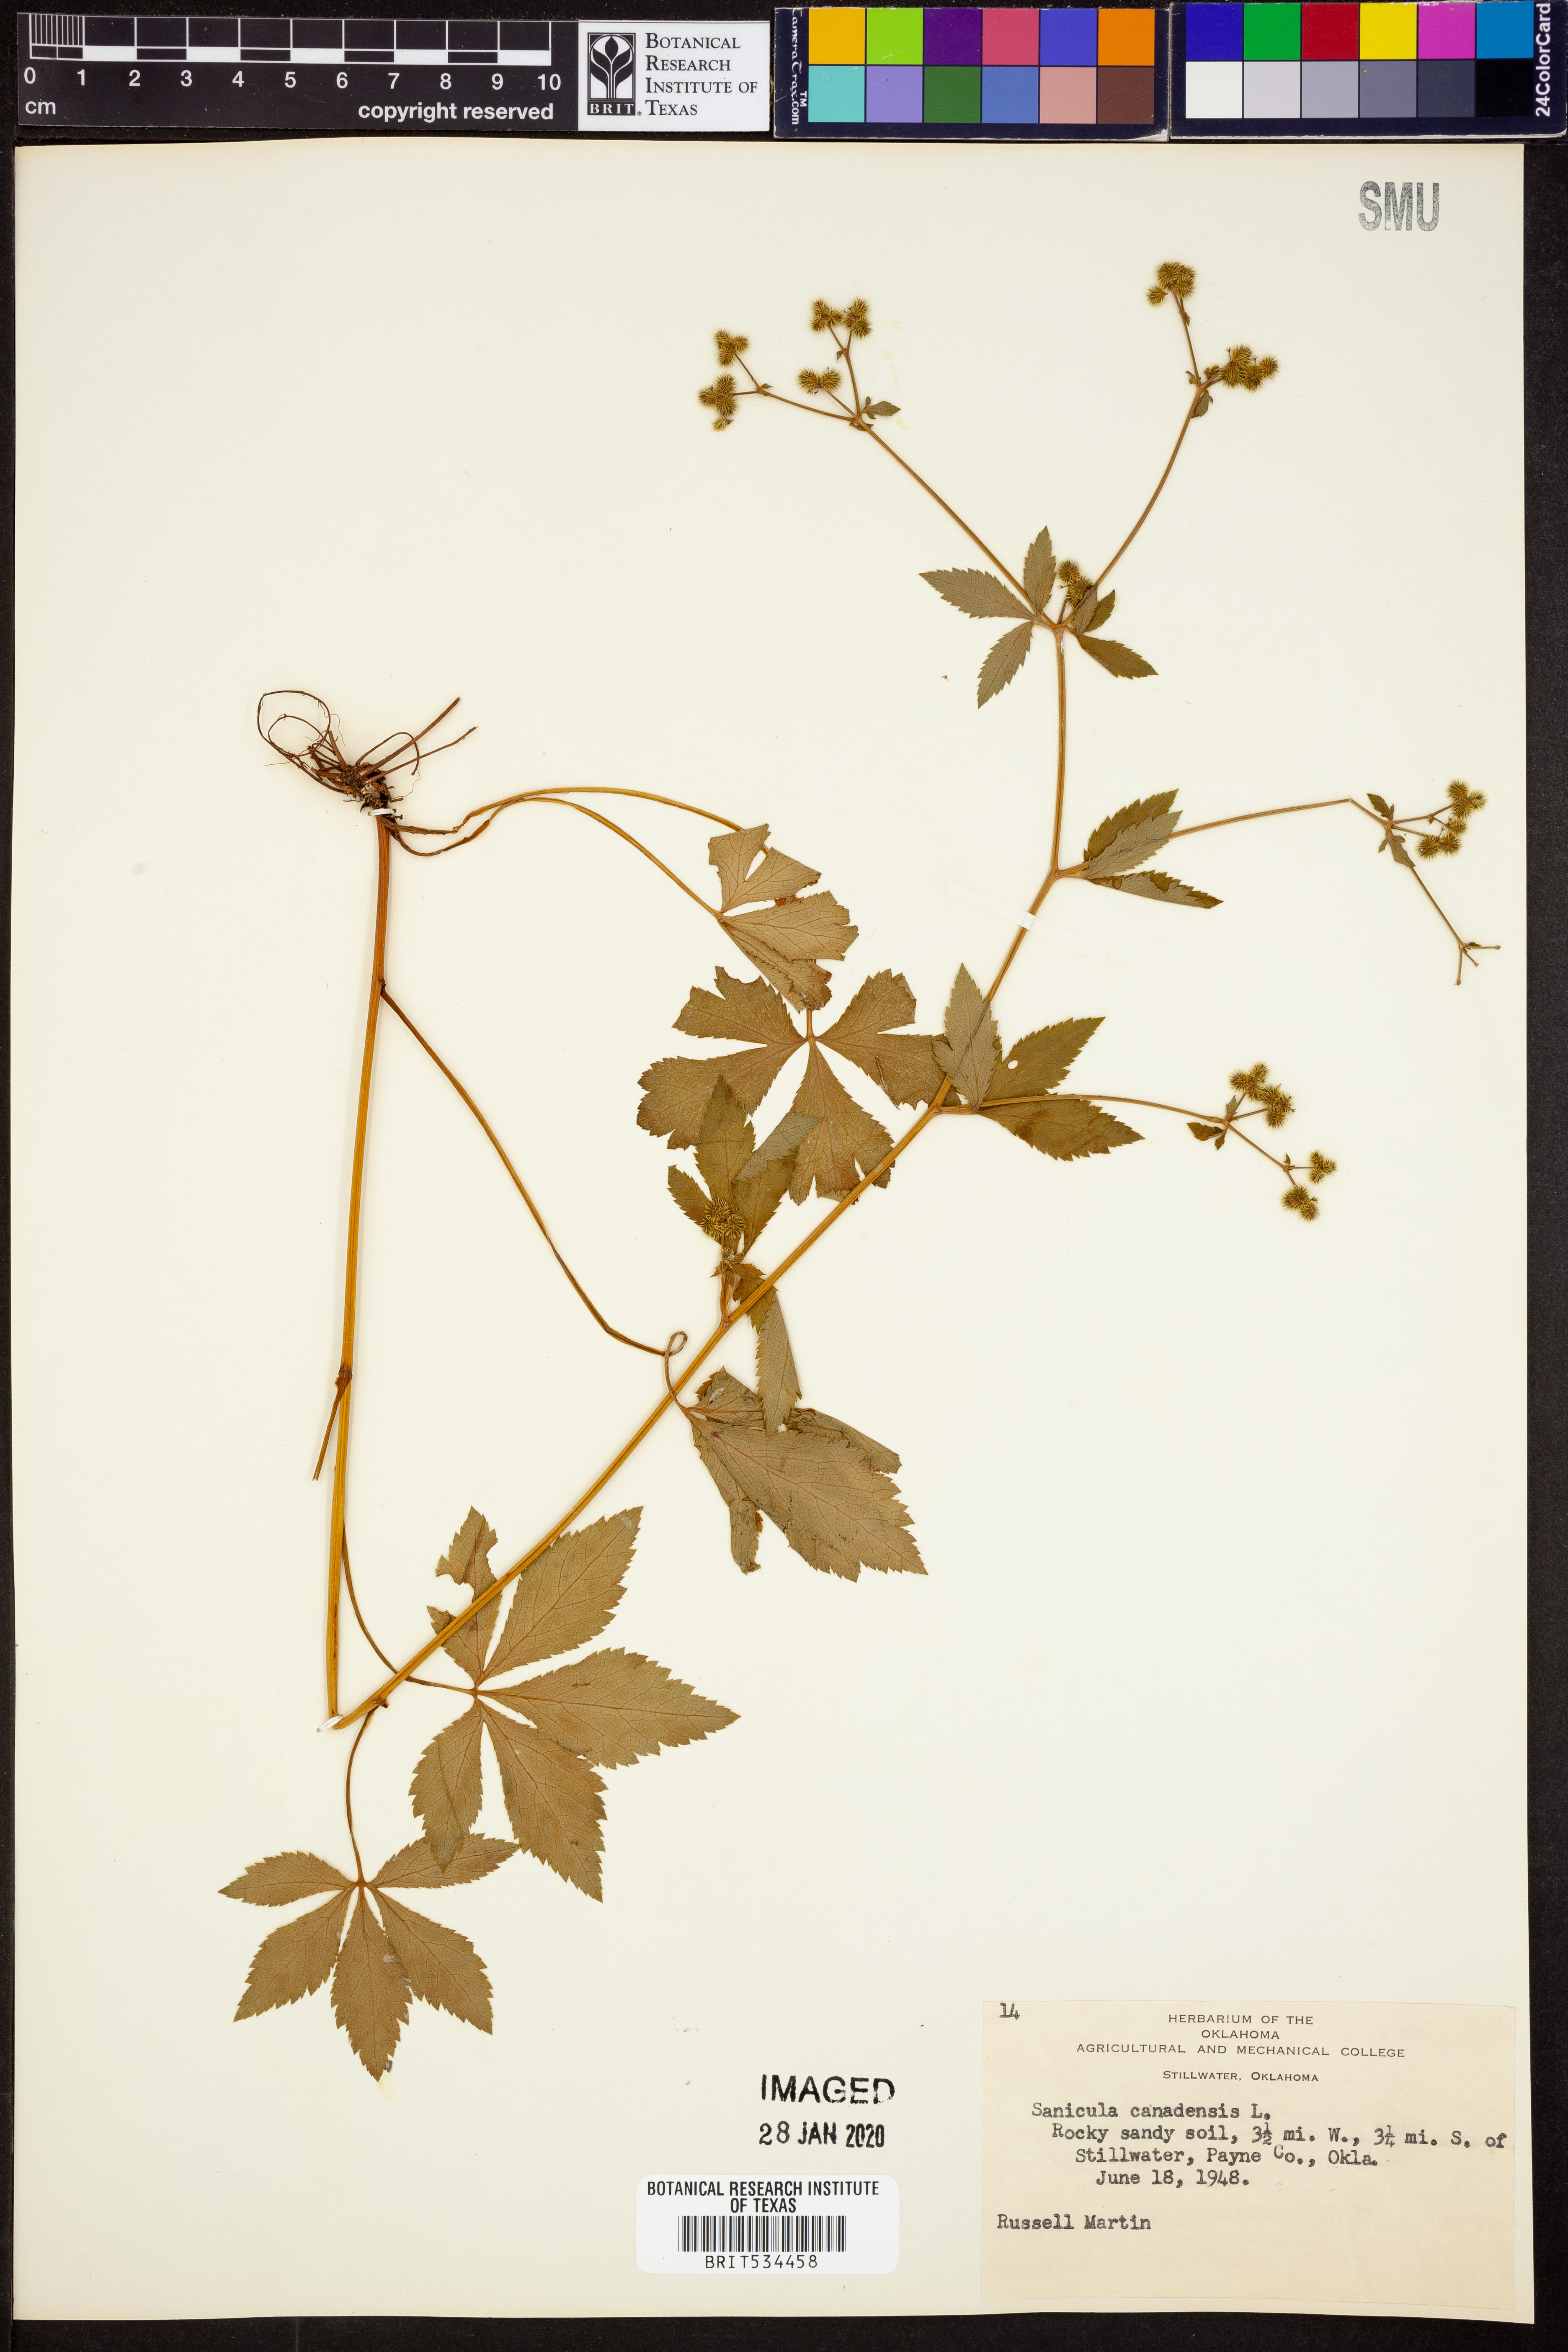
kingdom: Plantae
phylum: Tracheophyta
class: Magnoliopsida
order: Apiales
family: Apiaceae
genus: Sanicula
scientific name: Sanicula canadensis
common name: Canada sanicle
